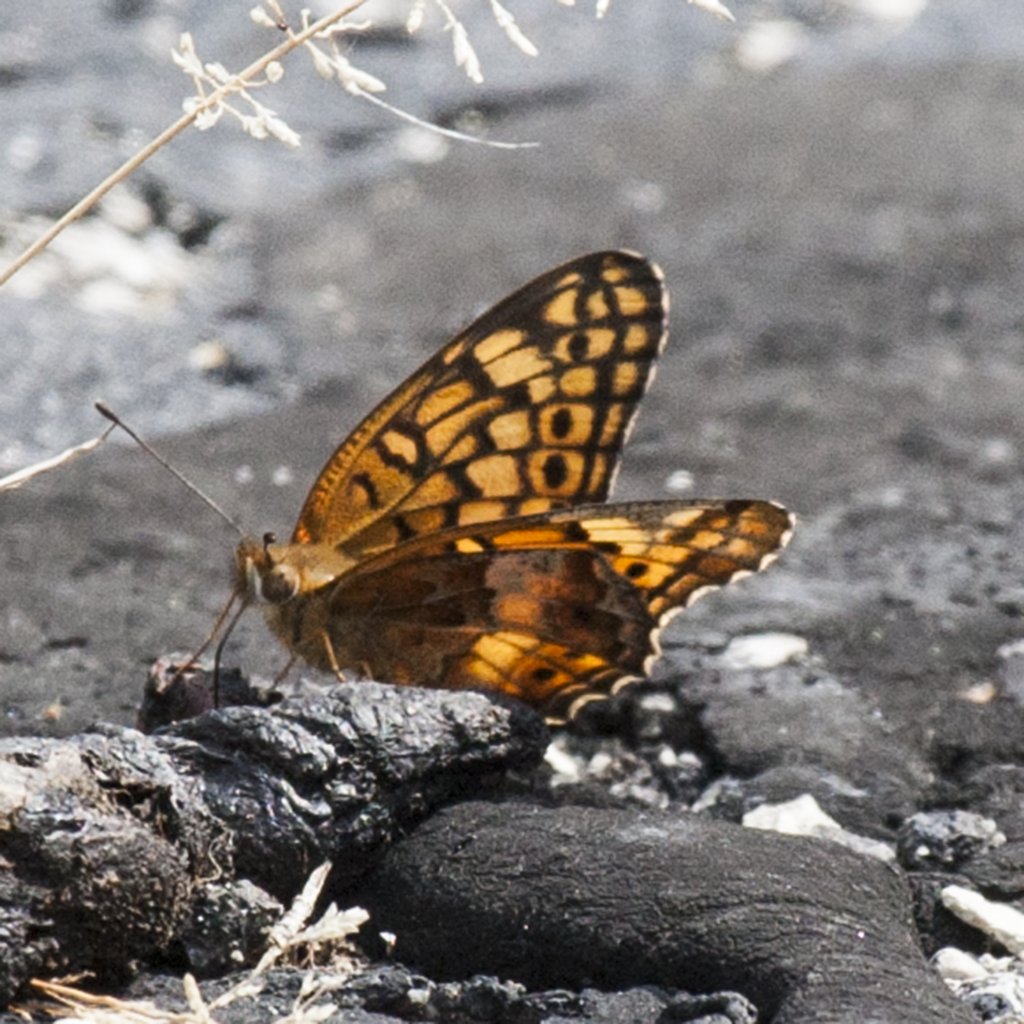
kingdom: Animalia
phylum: Arthropoda
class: Insecta
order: Lepidoptera
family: Nymphalidae
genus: Euptoieta
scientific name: Euptoieta claudia
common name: Variegated Fritillary
